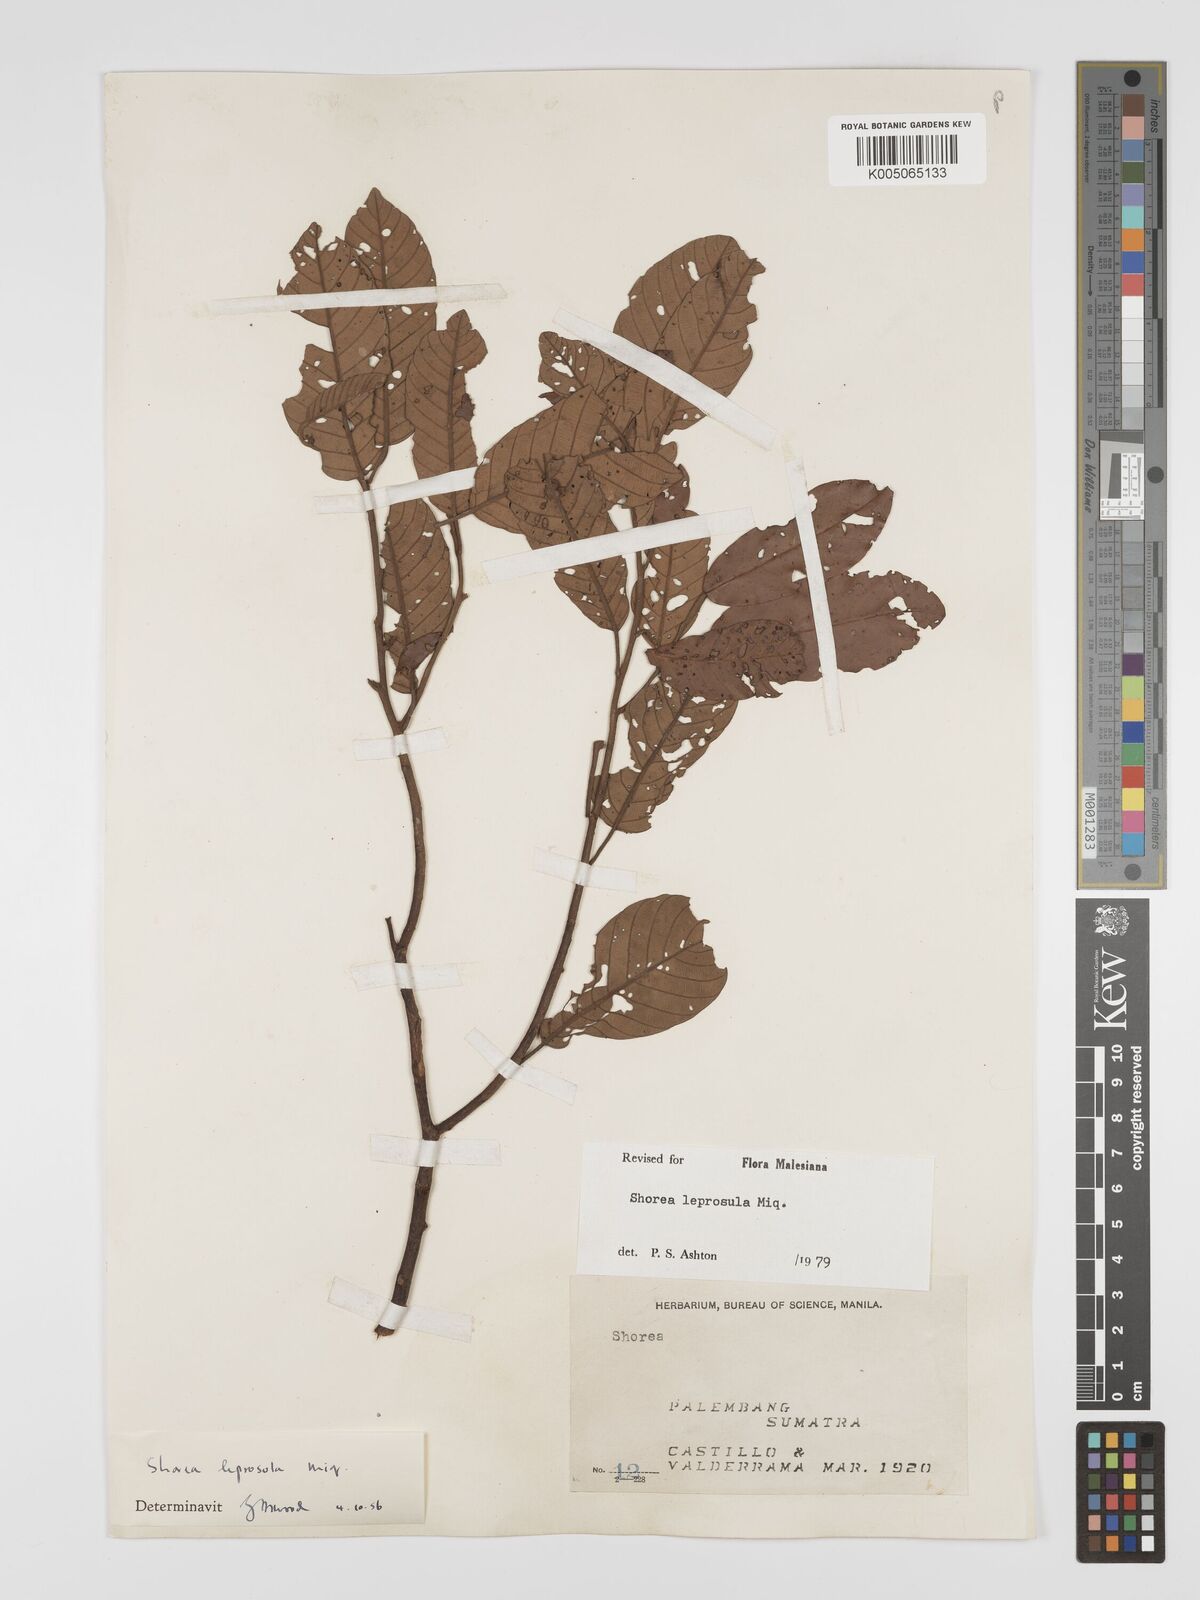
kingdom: Plantae
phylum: Tracheophyta
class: Magnoliopsida
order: Malvales
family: Dipterocarpaceae
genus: Shorea
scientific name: Shorea leprosula
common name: Light red meranti
